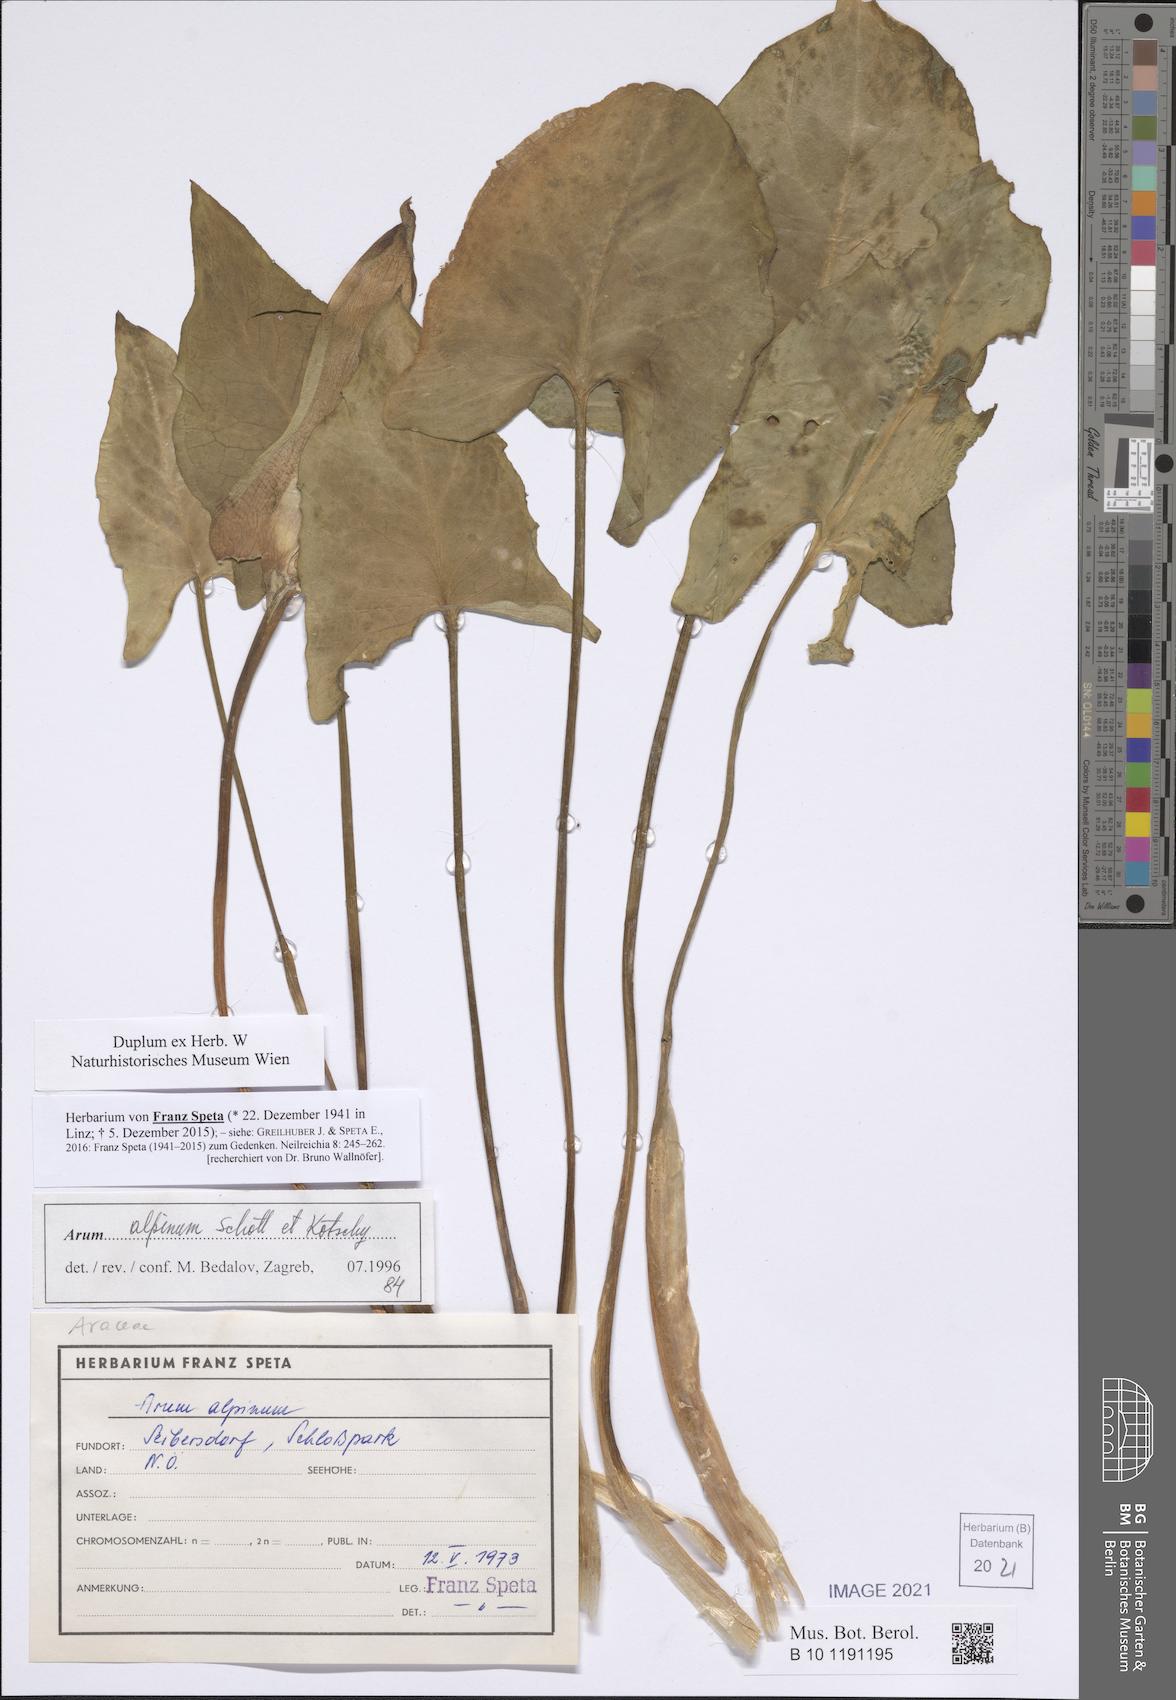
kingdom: Plantae
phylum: Tracheophyta
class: Liliopsida
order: Alismatales
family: Araceae
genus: Arum
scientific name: Arum cylindraceum
